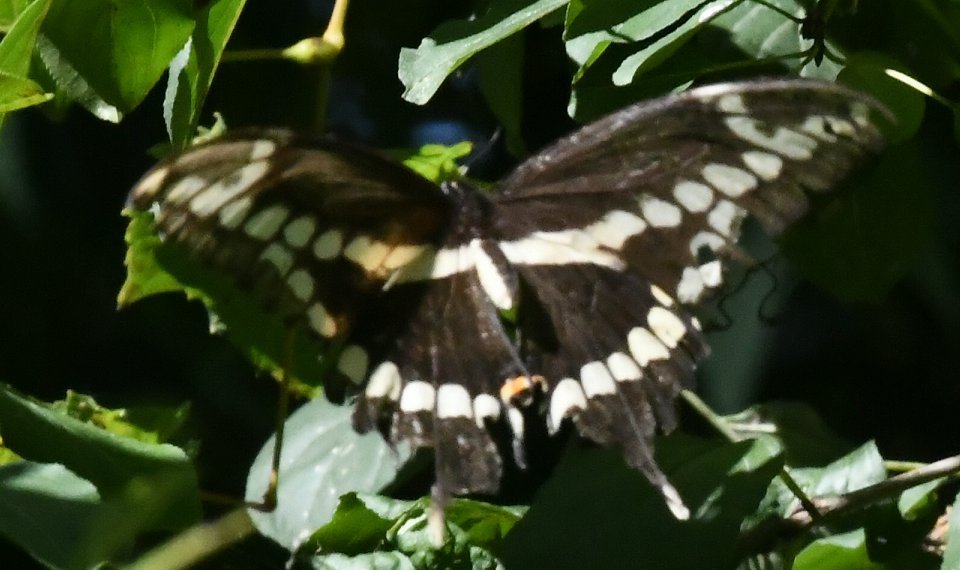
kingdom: Animalia
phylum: Arthropoda
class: Insecta
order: Lepidoptera
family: Papilionidae
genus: Papilio
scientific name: Papilio cresphontes
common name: Eastern Giant Swallowtail
